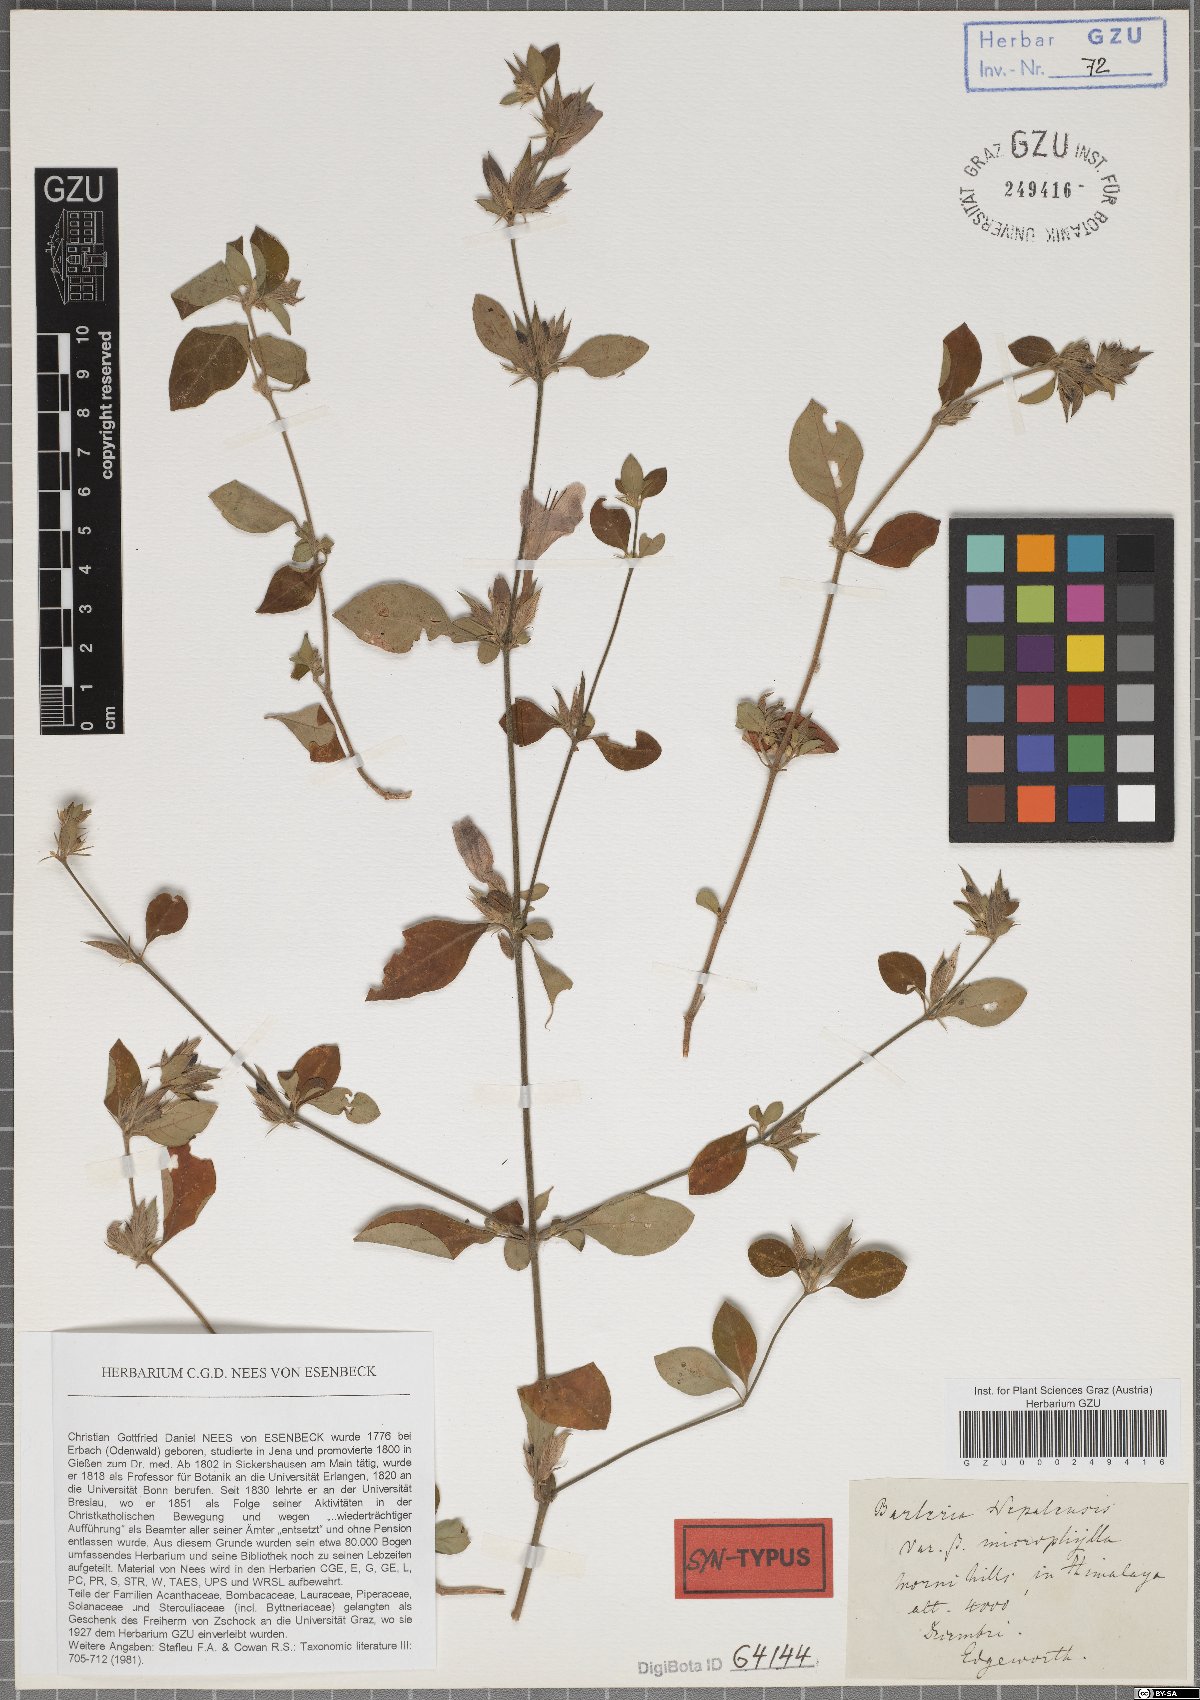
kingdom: Plantae
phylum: Tracheophyta
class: Magnoliopsida
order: Lamiales
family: Acanthaceae
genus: Barleria
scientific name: Barleria cristata
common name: Crested philippine violet
